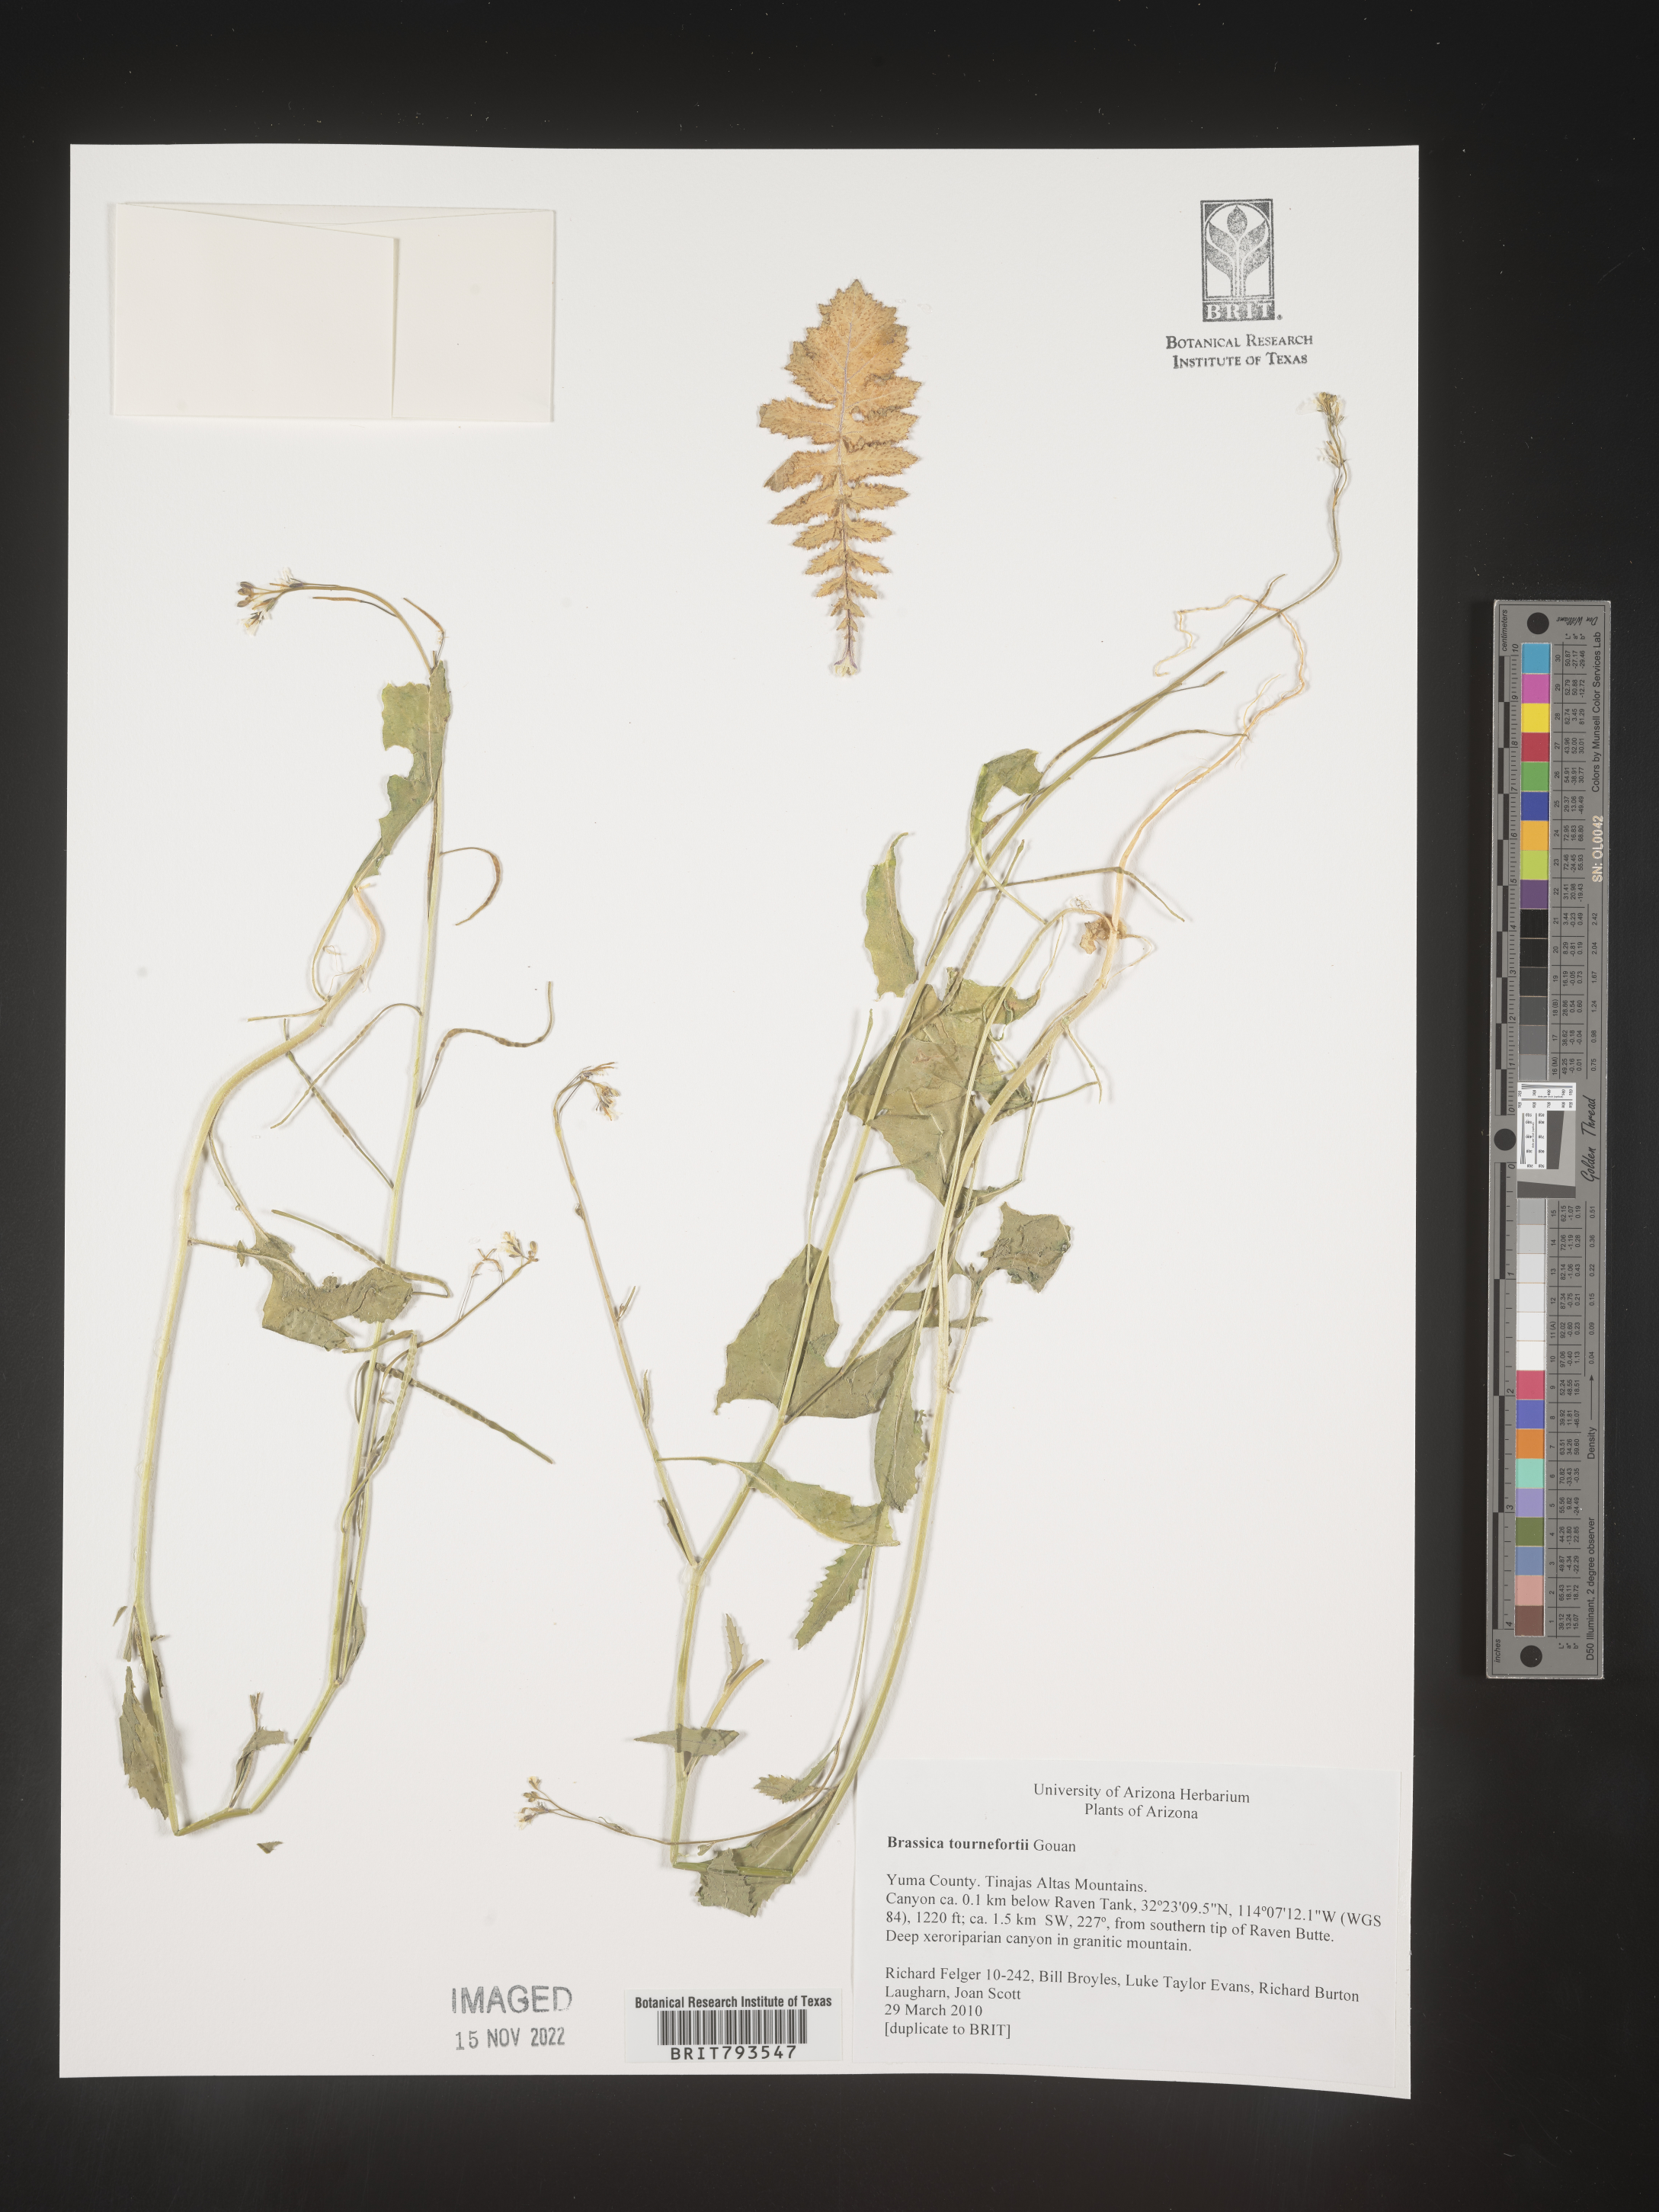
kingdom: Plantae
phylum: Tracheophyta
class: Magnoliopsida
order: Brassicales
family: Brassicaceae
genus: Brassica
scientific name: Brassica tournefortii
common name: Pale cabbage
